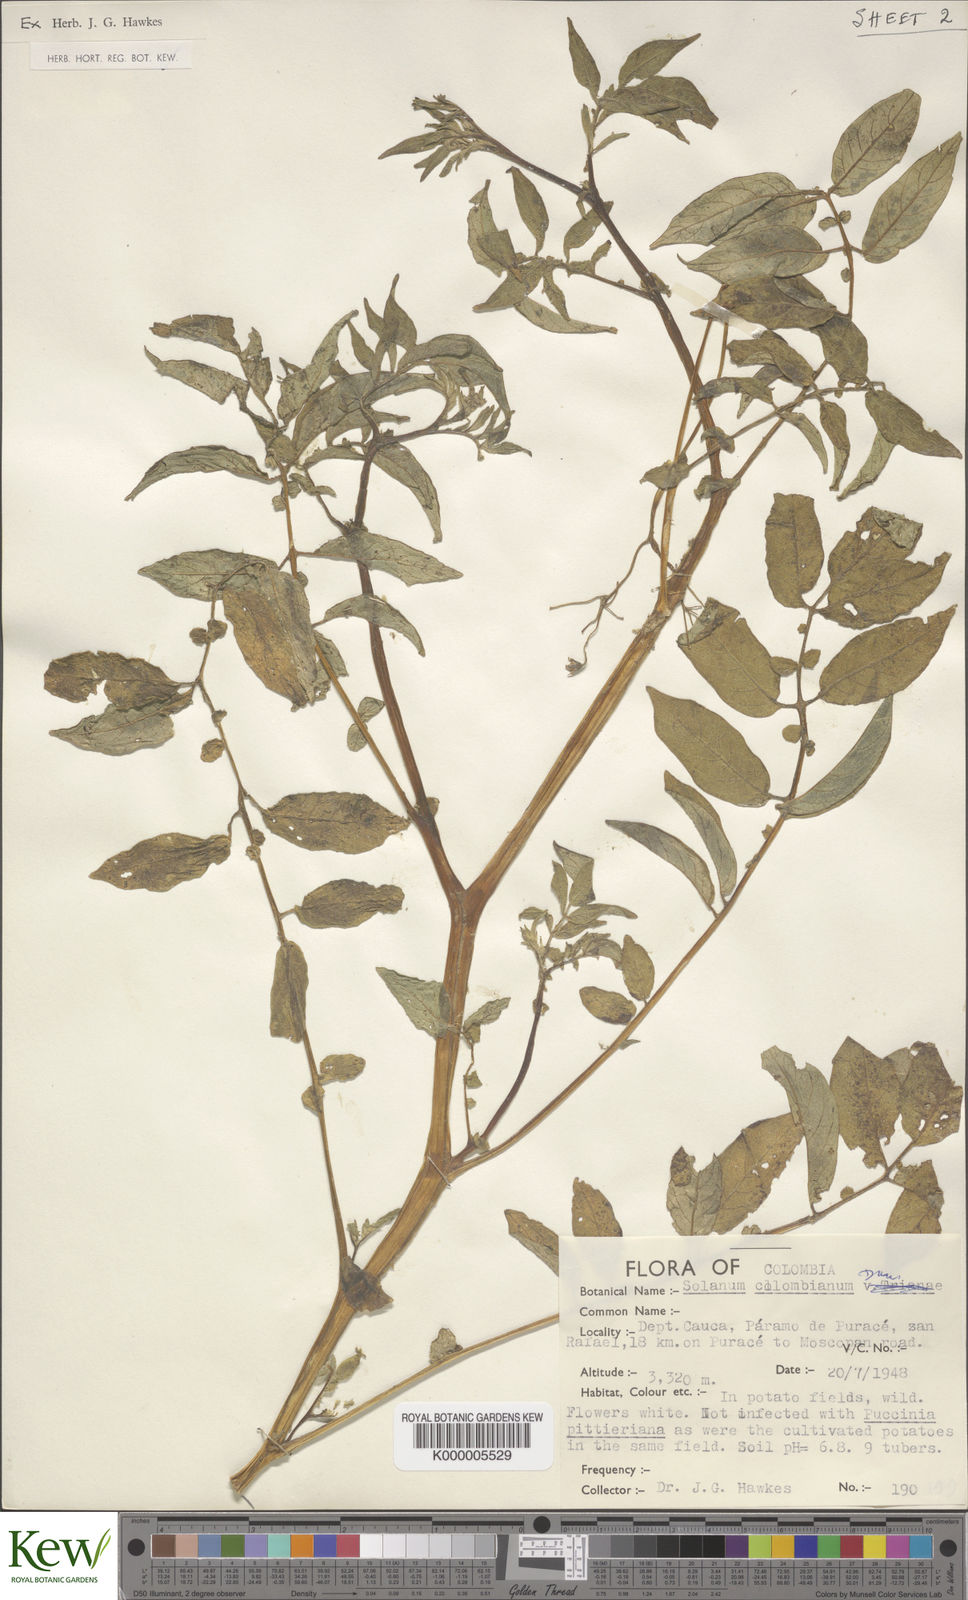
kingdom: Plantae
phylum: Tracheophyta
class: Magnoliopsida
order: Solanales
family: Solanaceae
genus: Solanum
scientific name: Solanum colombianum
